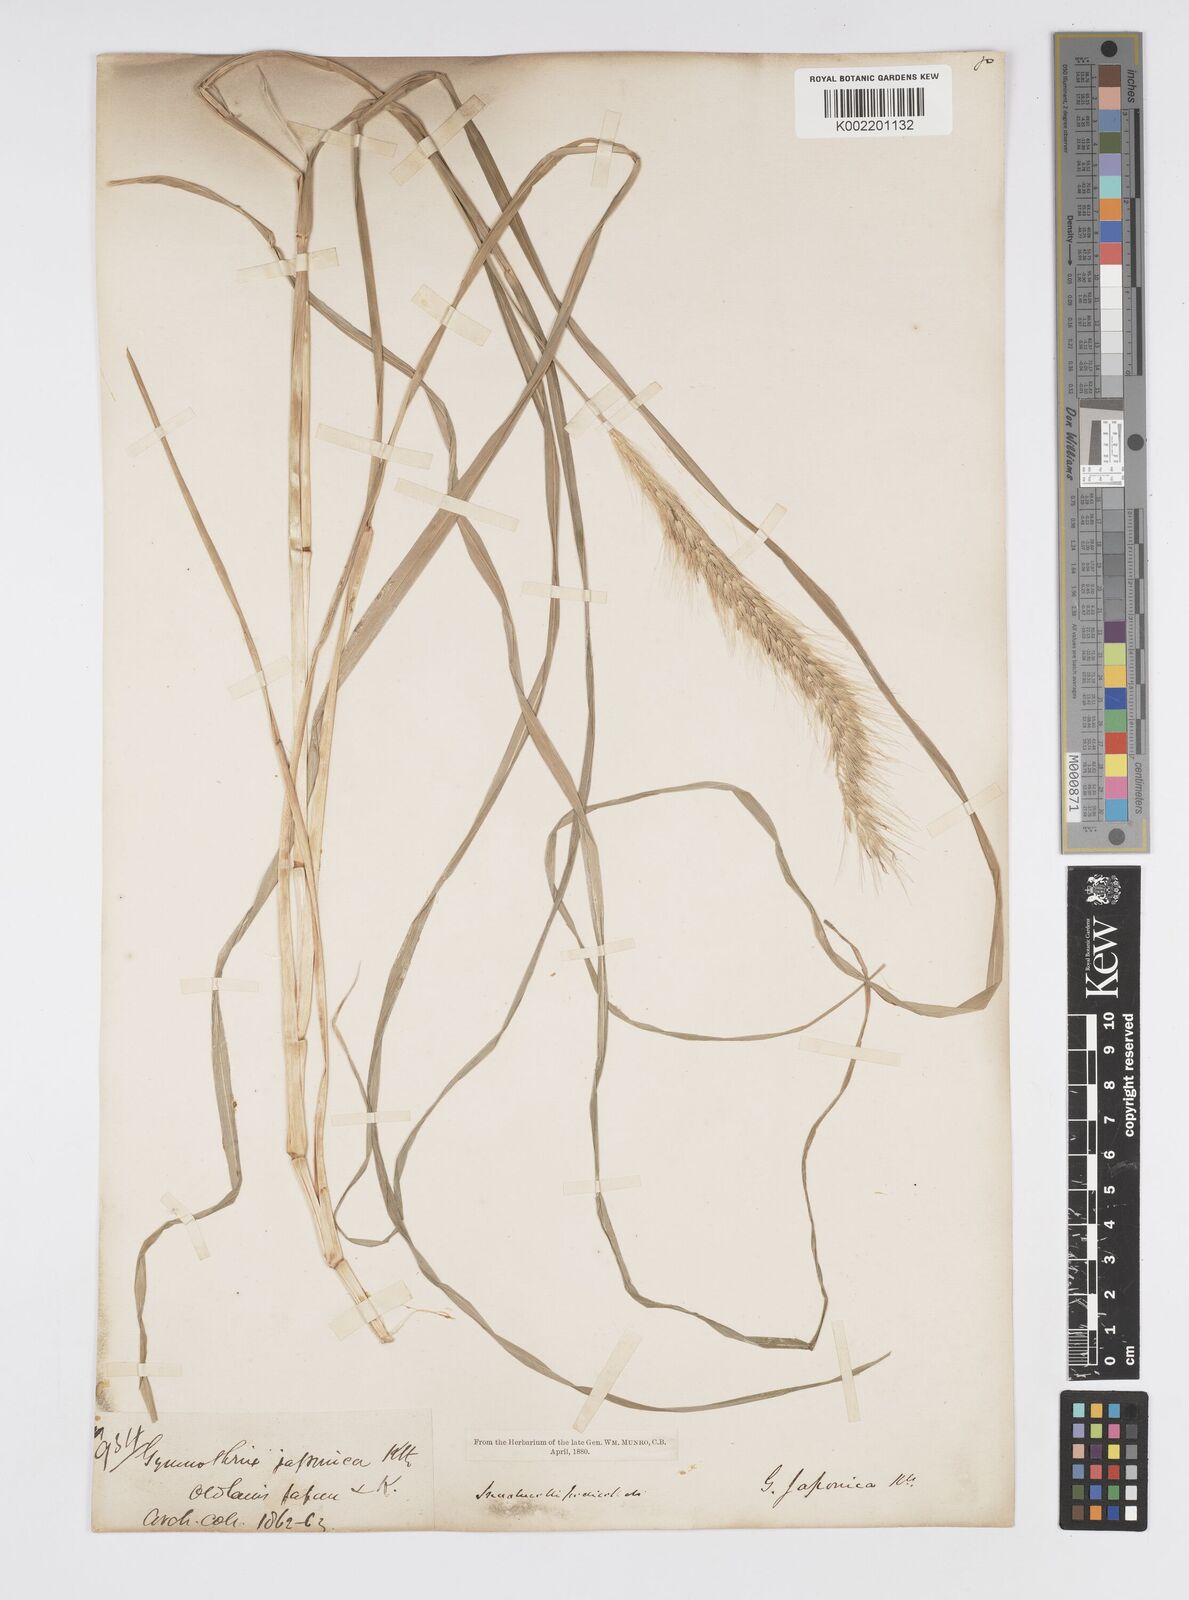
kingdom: Plantae
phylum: Tracheophyta
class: Liliopsida
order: Poales
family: Poaceae
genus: Cenchrus
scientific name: Cenchrus alopecuroides
